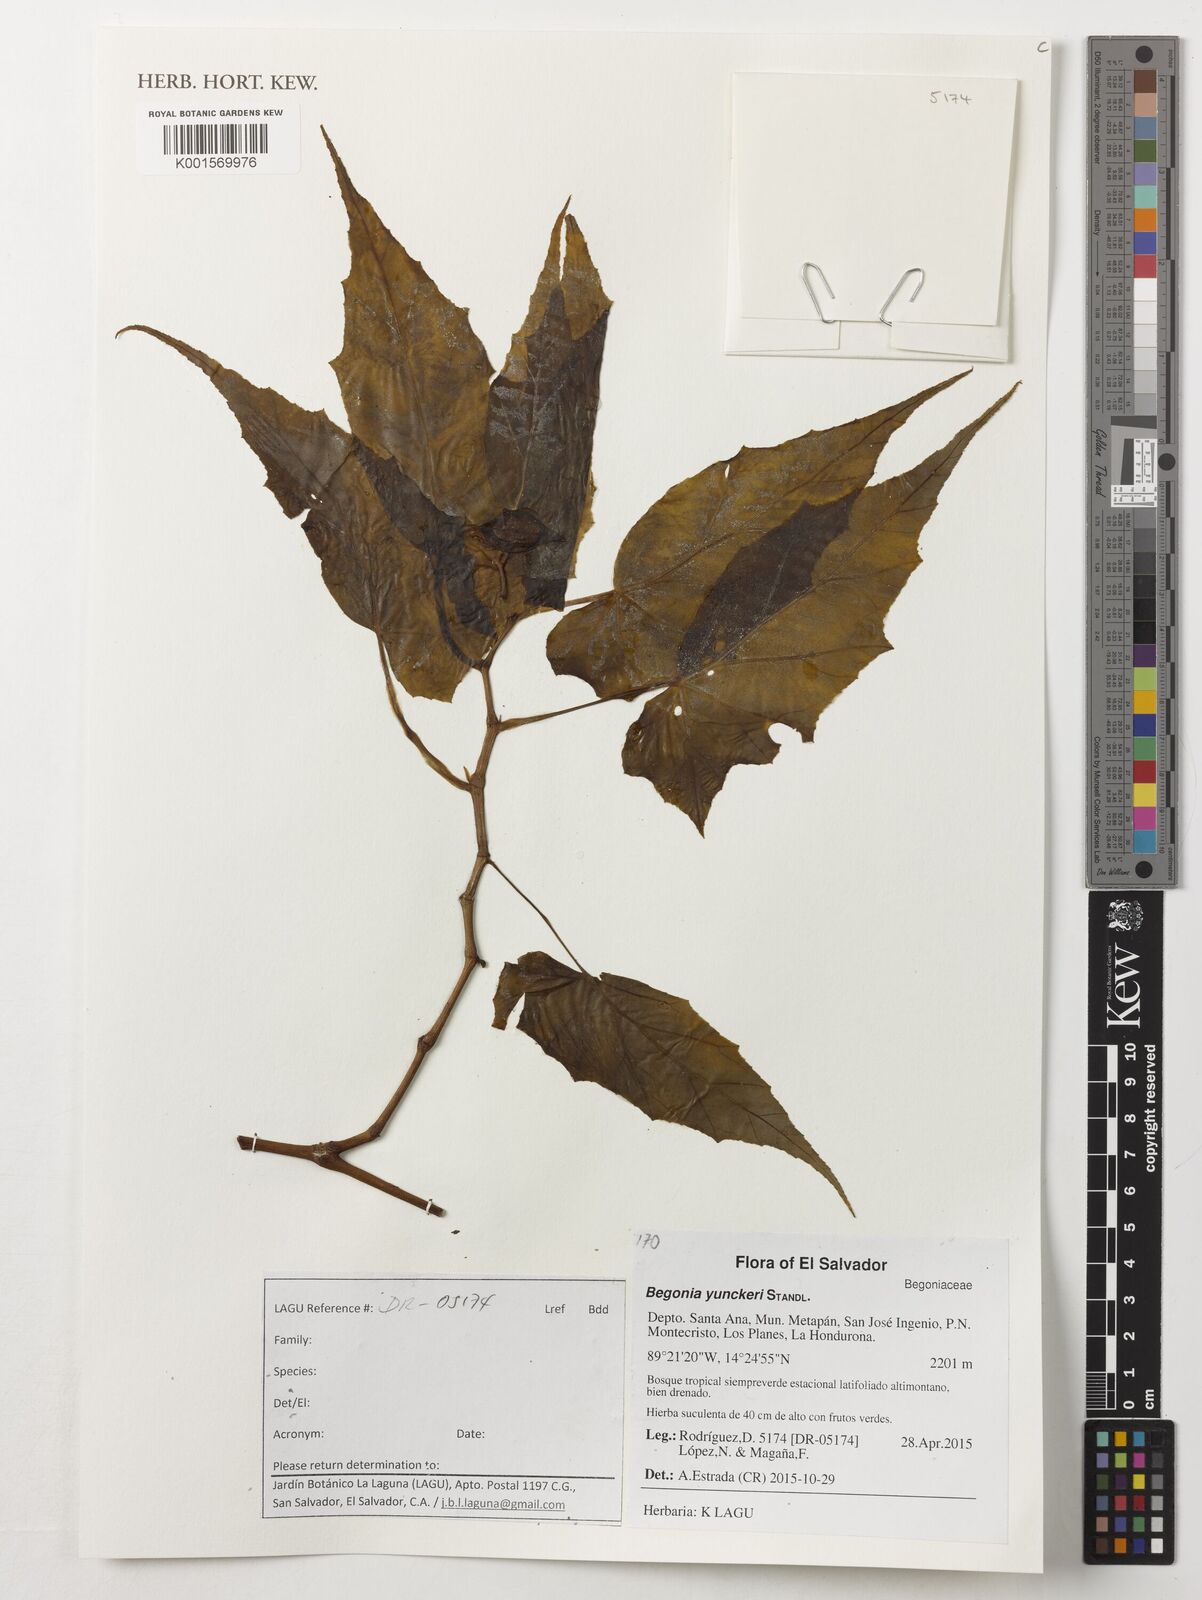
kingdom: Plantae
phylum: Tracheophyta
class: Magnoliopsida
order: Cucurbitales
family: Begoniaceae
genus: Begonia
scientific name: Begonia yunckeri
